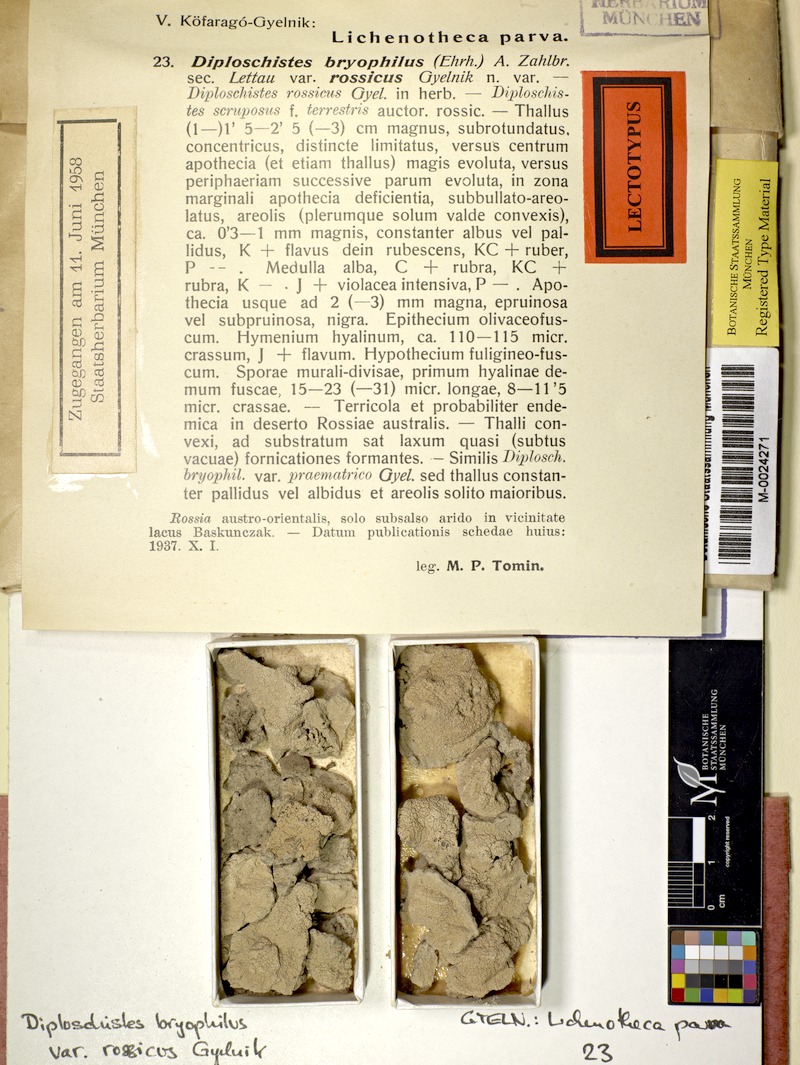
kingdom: Fungi
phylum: Ascomycota
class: Lecanoromycetes
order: Ostropales
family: Graphidaceae
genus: Diploschistes
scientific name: Diploschistes muscorum
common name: Cowpie lichen
